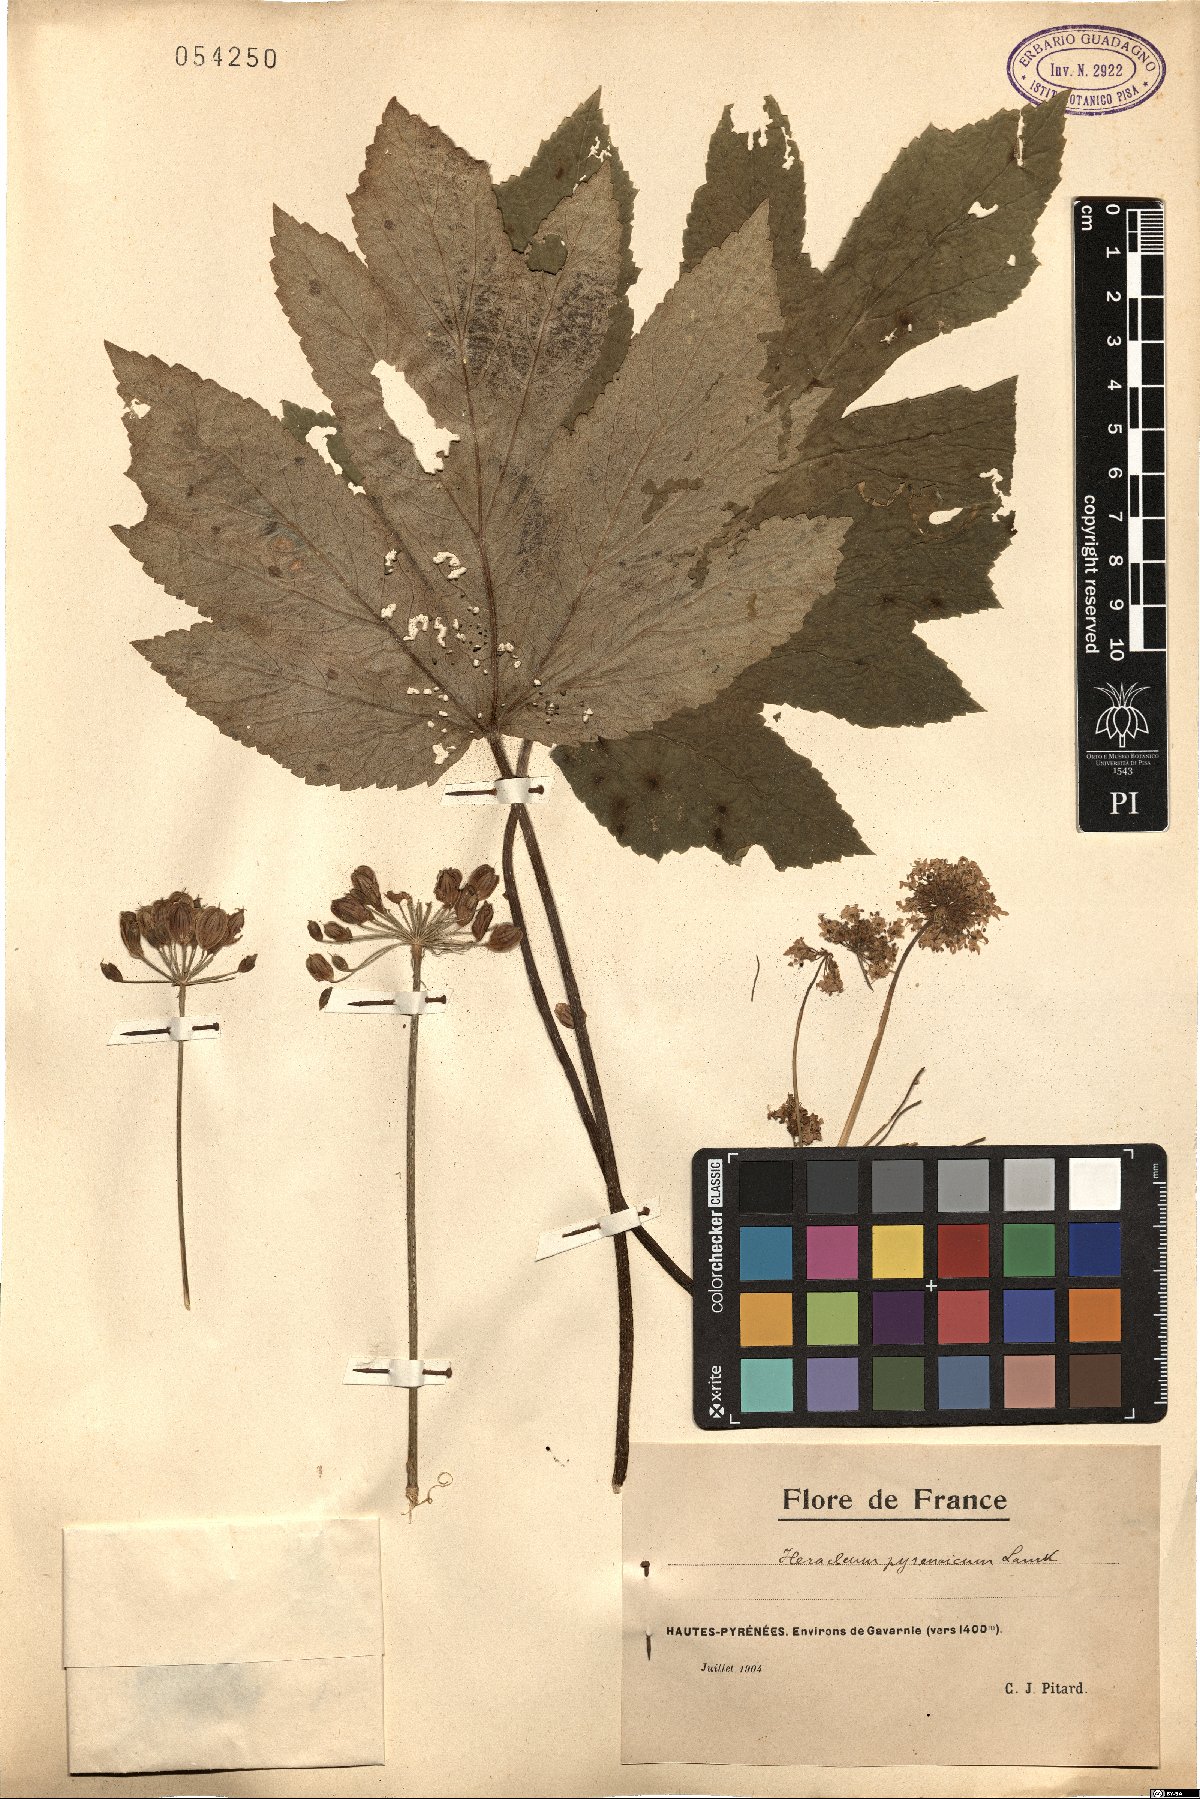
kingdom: Plantae
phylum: Tracheophyta
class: Magnoliopsida
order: Apiales
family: Apiaceae
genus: Heracleum
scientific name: Heracleum sphondylium
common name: Hogweed
